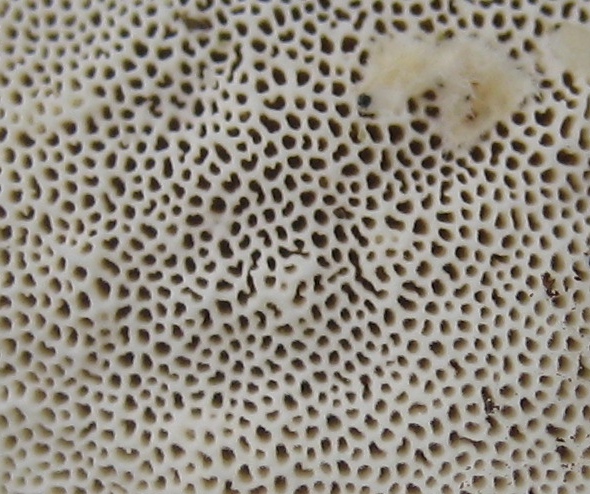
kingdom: Fungi
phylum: Basidiomycota
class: Agaricomycetes
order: Polyporales
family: Polyporaceae
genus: Trametes
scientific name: Trametes hirsuta
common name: håret læderporesvamp
